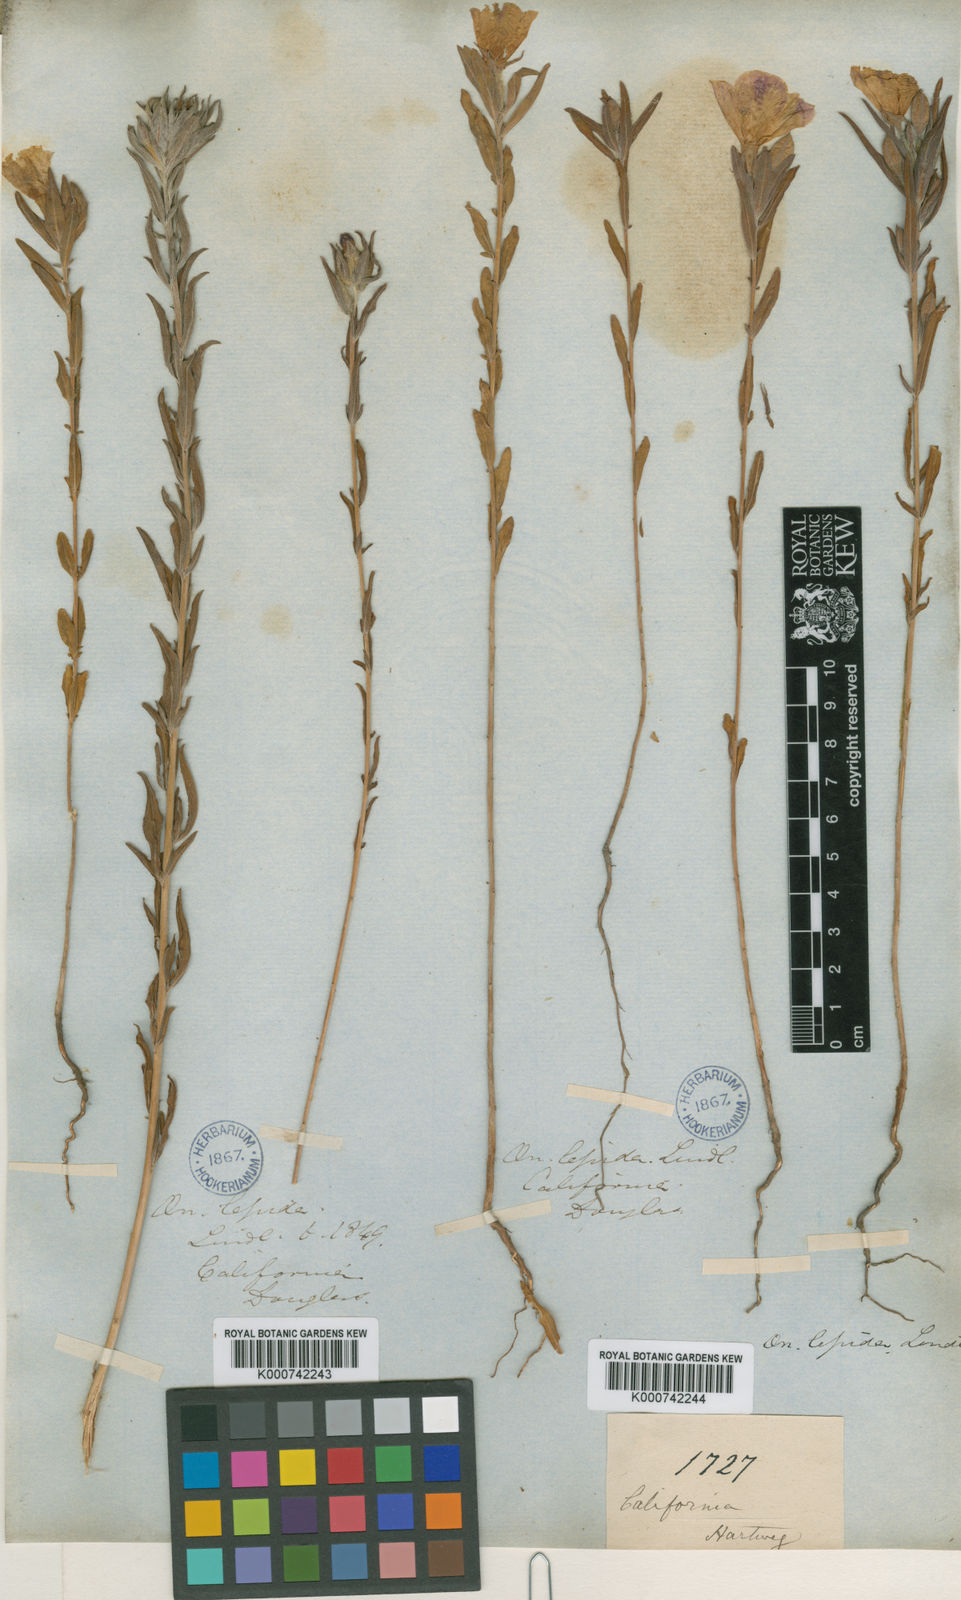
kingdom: Plantae
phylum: Tracheophyta
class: Magnoliopsida
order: Myrtales
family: Onagraceae
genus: Clarkia
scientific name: Clarkia purpurea
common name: Purple clarkia
